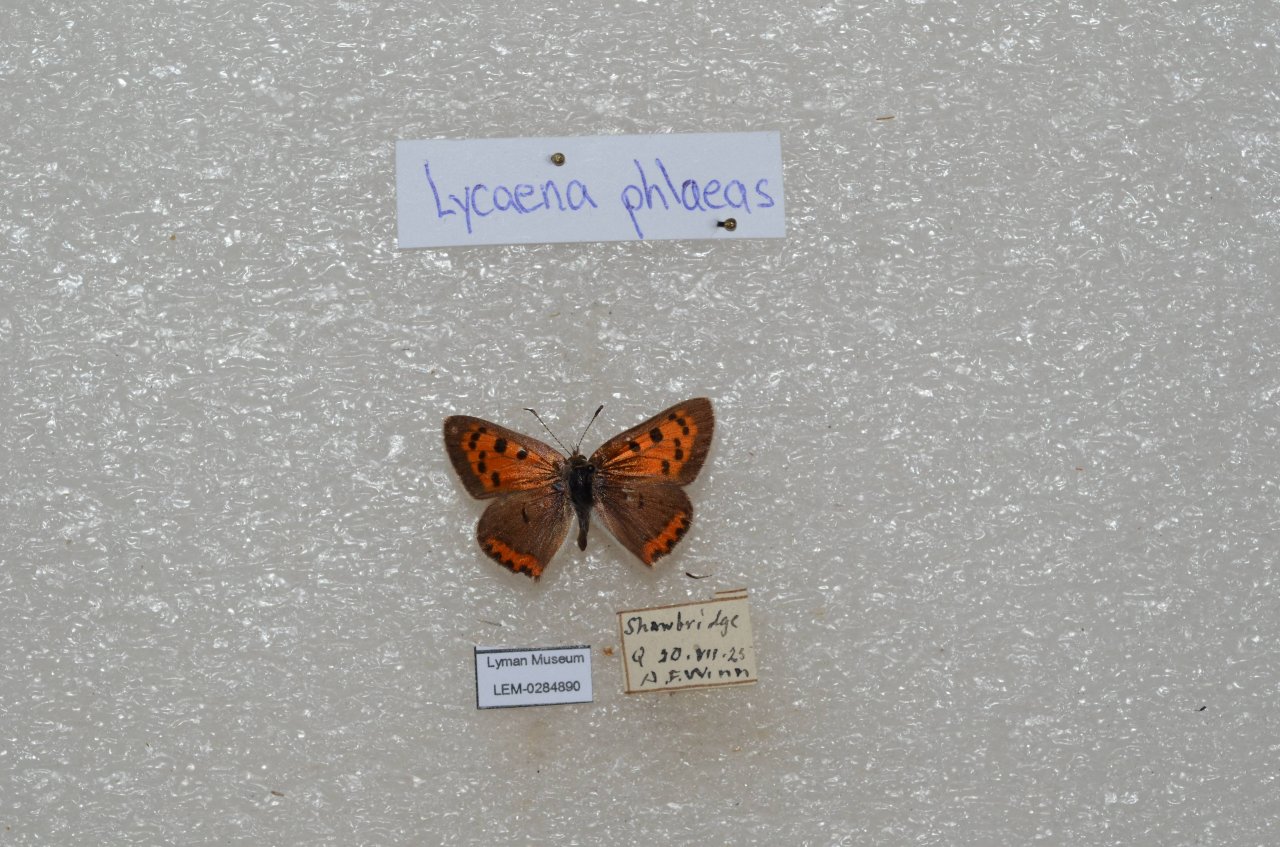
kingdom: Animalia
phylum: Arthropoda
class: Insecta
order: Lepidoptera
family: Lycaenidae
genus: Lycaena
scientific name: Lycaena phlaeas
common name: American Copper
